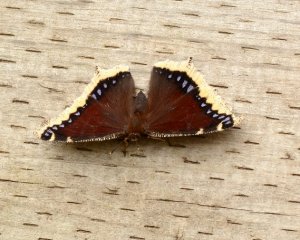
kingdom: Animalia
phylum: Arthropoda
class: Insecta
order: Lepidoptera
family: Nymphalidae
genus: Nymphalis
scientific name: Nymphalis antiopa
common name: Mourning Cloak
